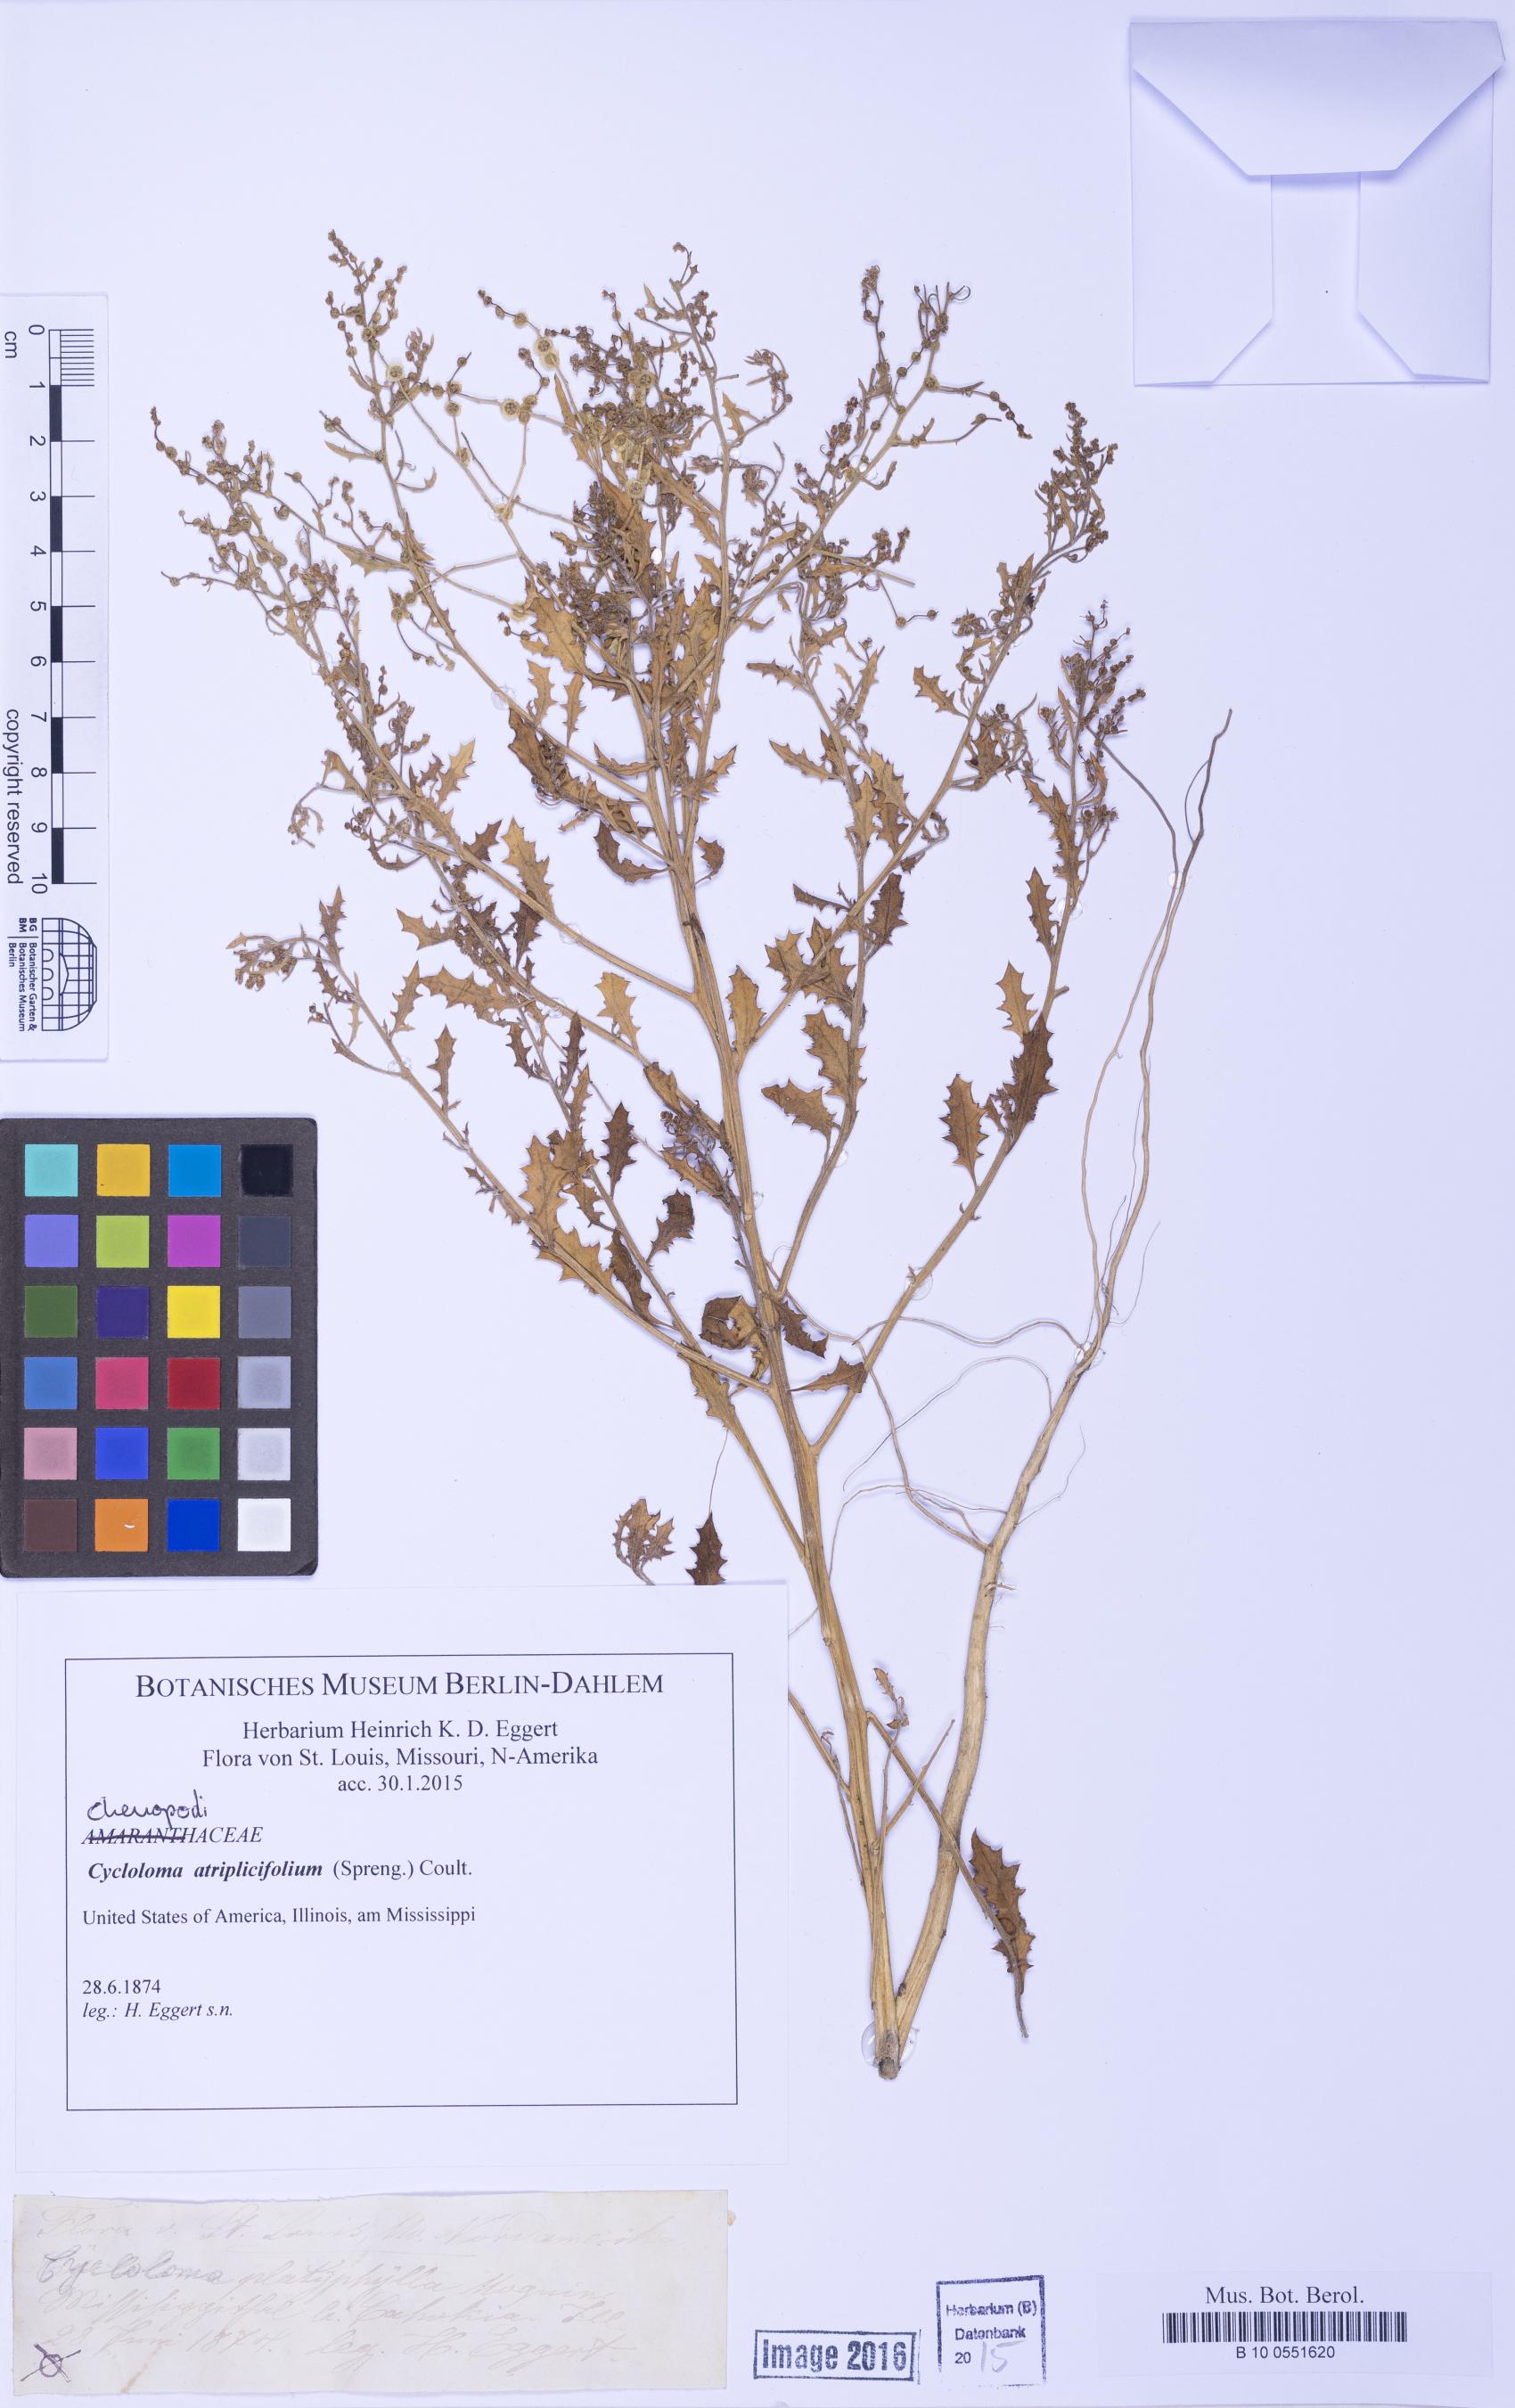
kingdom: Plantae
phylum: Tracheophyta
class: Magnoliopsida
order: Caryophyllales
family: Amaranthaceae
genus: Dysphania
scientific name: Dysphania atriplicifolia
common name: Plains tumbleweed
